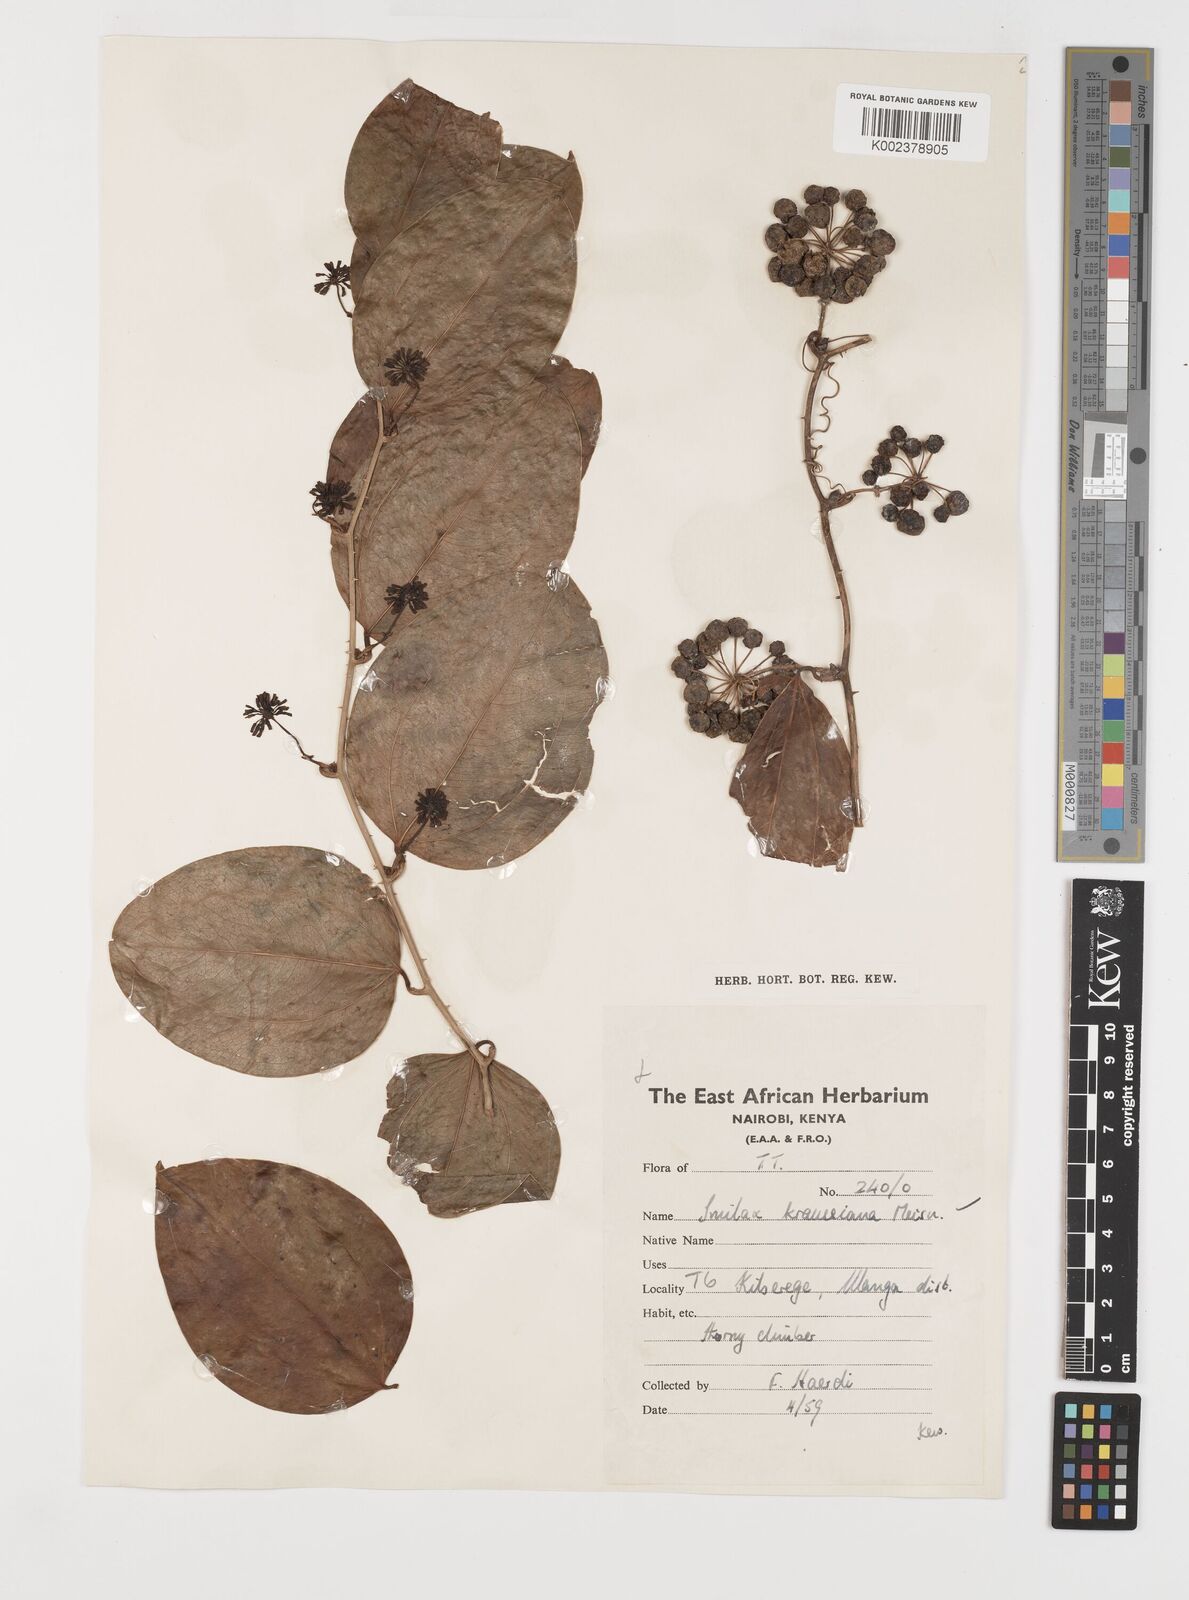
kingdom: Plantae
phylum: Tracheophyta
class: Liliopsida
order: Liliales
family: Smilacaceae
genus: Smilax
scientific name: Smilax anceps
